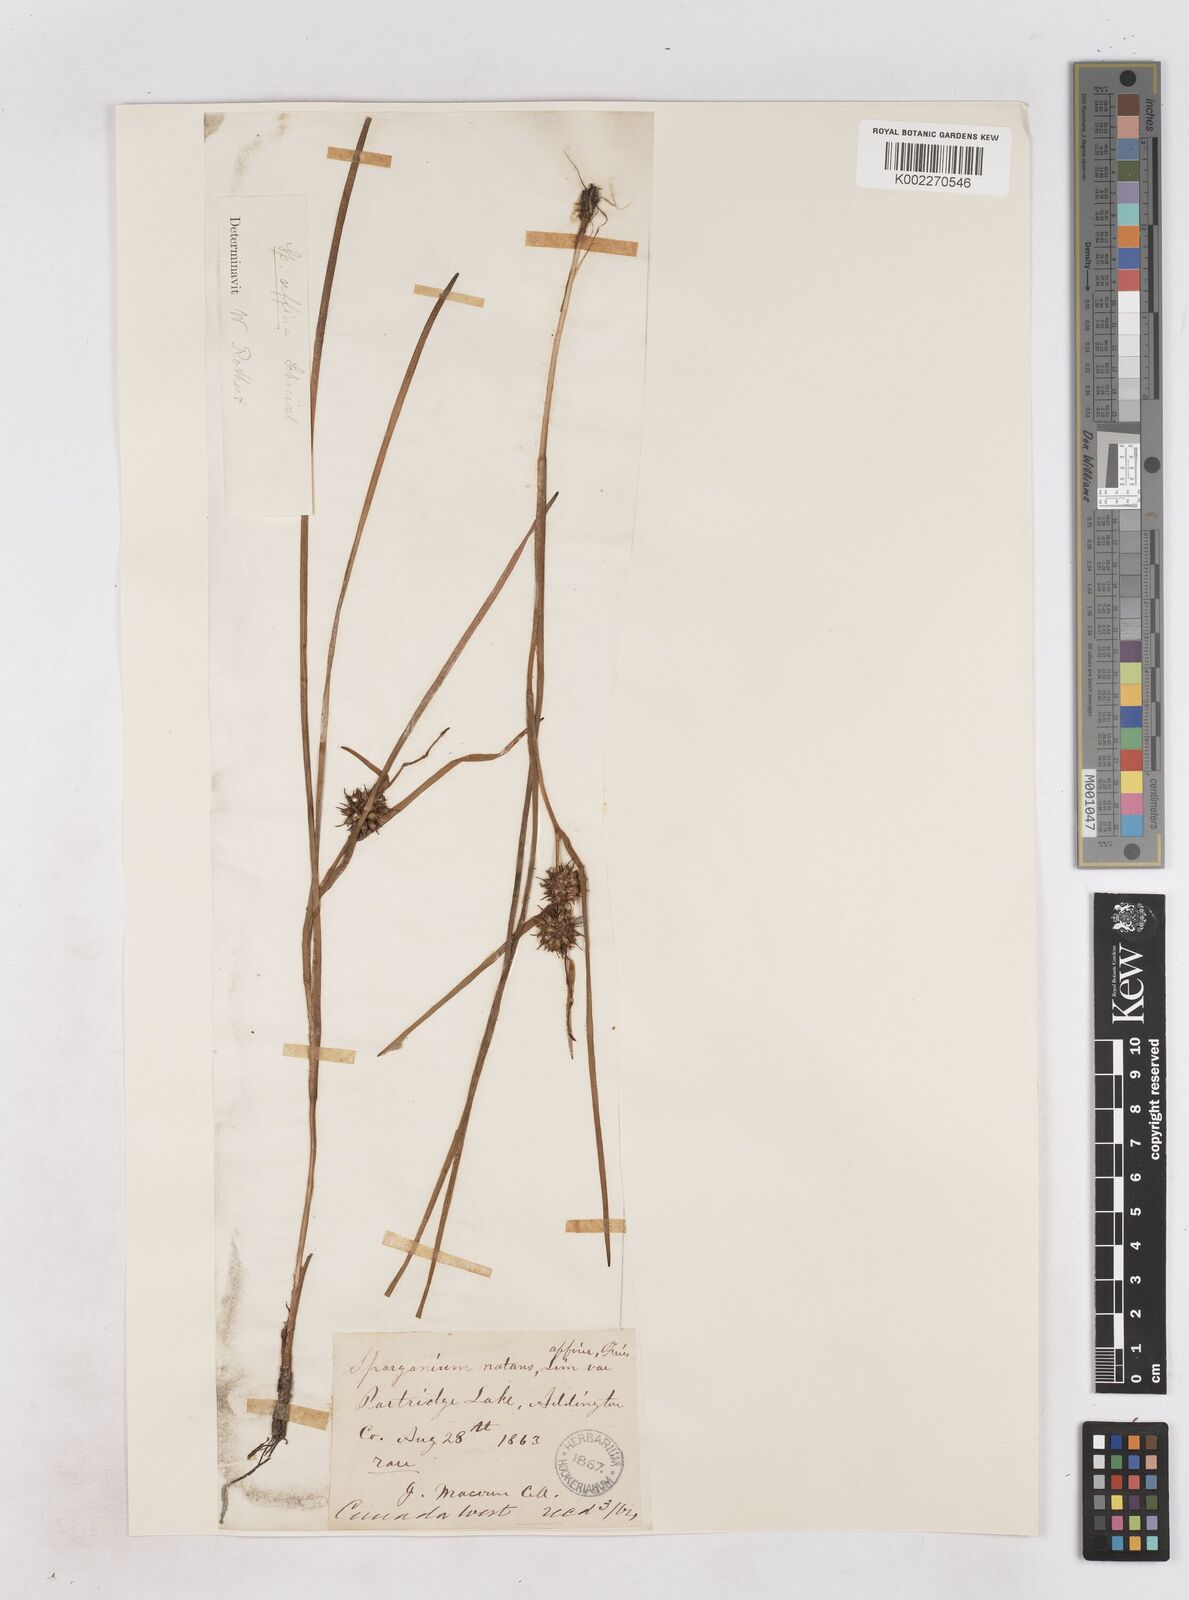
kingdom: Plantae
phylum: Tracheophyta
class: Liliopsida
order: Poales
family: Typhaceae
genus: Sparganium
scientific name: Sparganium angustifolium
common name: Floating bur-reed
